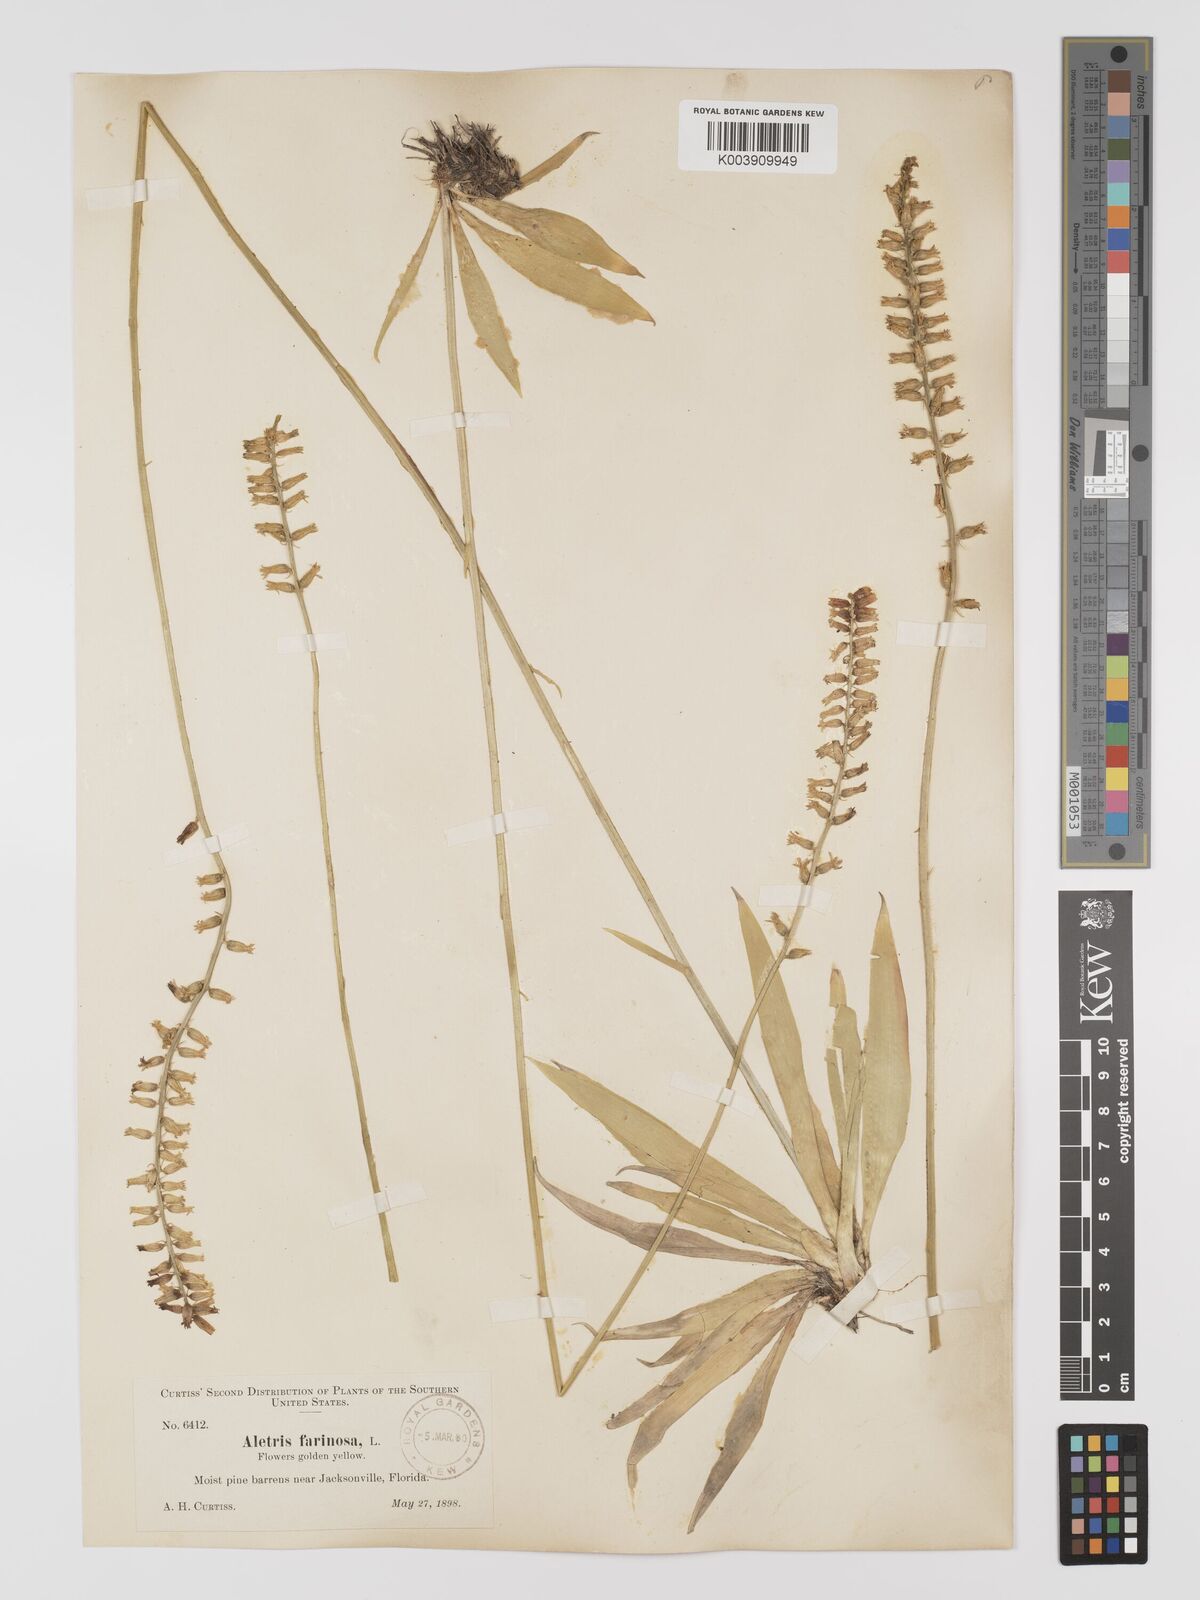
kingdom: Plantae
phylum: Tracheophyta
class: Liliopsida
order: Dioscoreales
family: Nartheciaceae
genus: Aletris
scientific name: Aletris lutea
